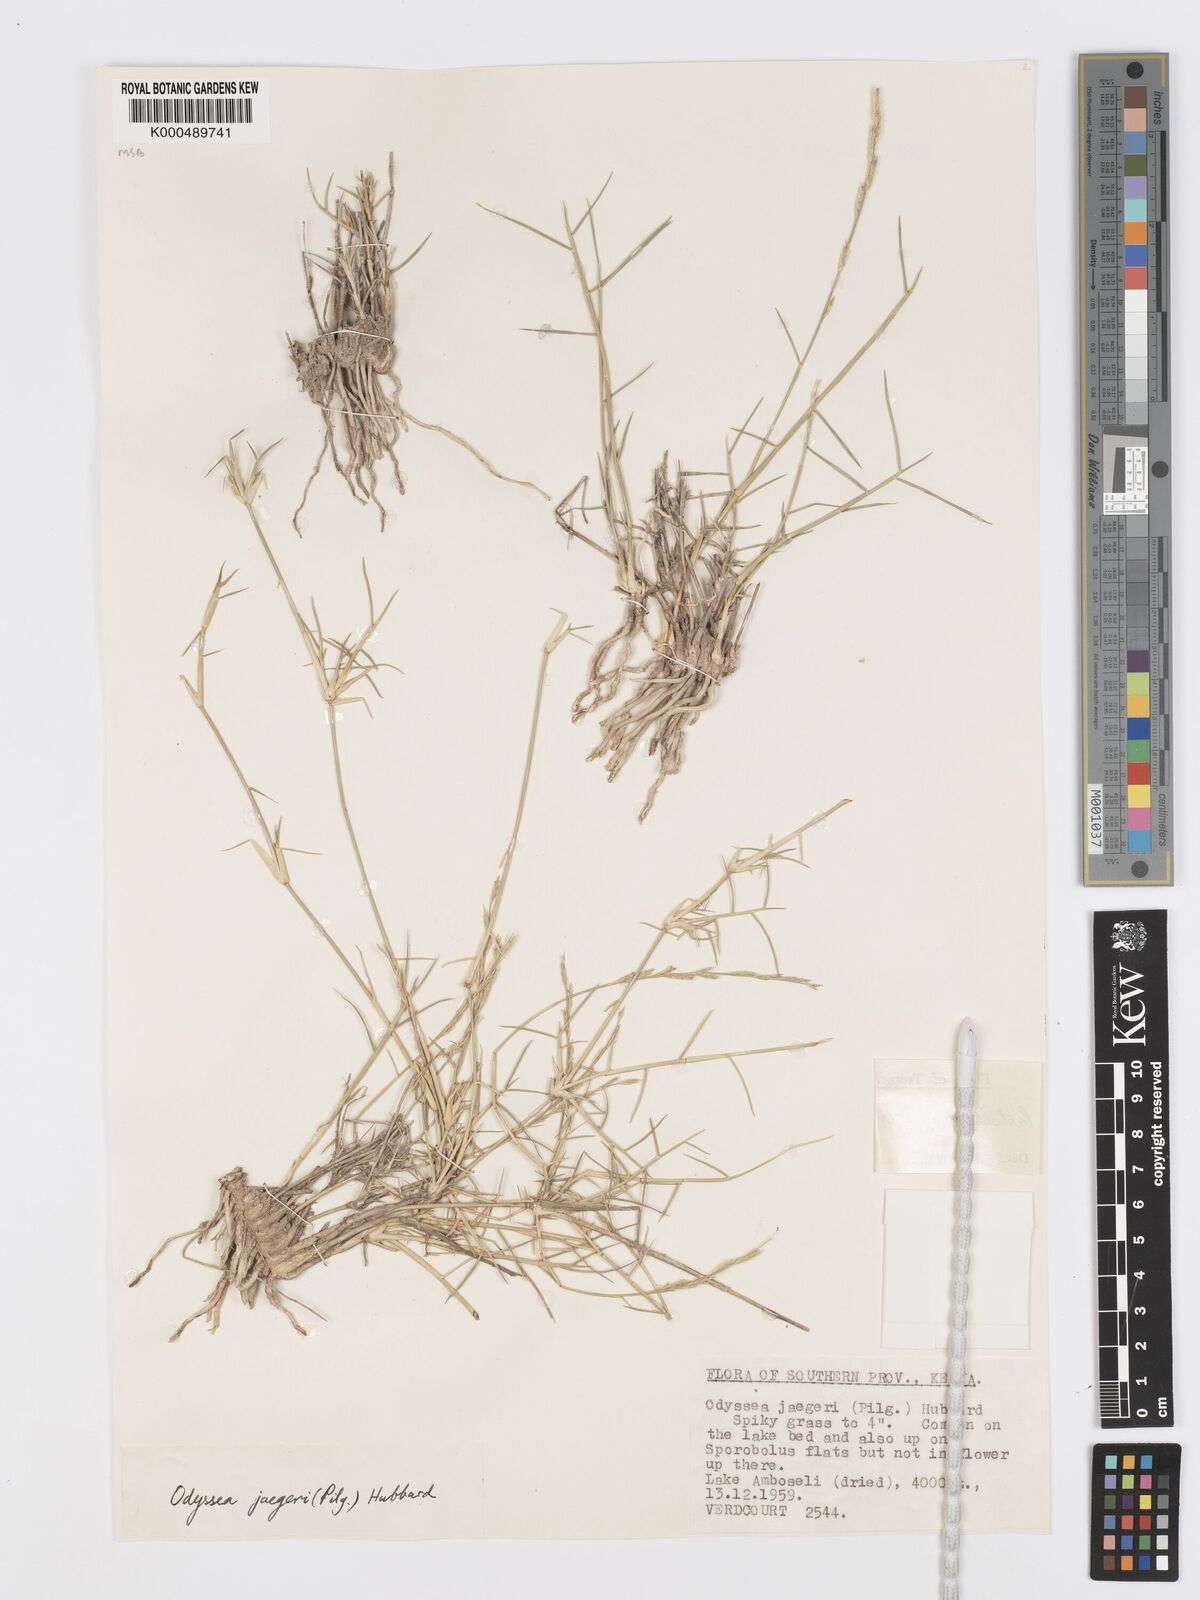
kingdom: Plantae
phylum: Tracheophyta
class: Liliopsida
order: Poales
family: Poaceae
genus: Psilolemma
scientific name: Psilolemma jaegeri
